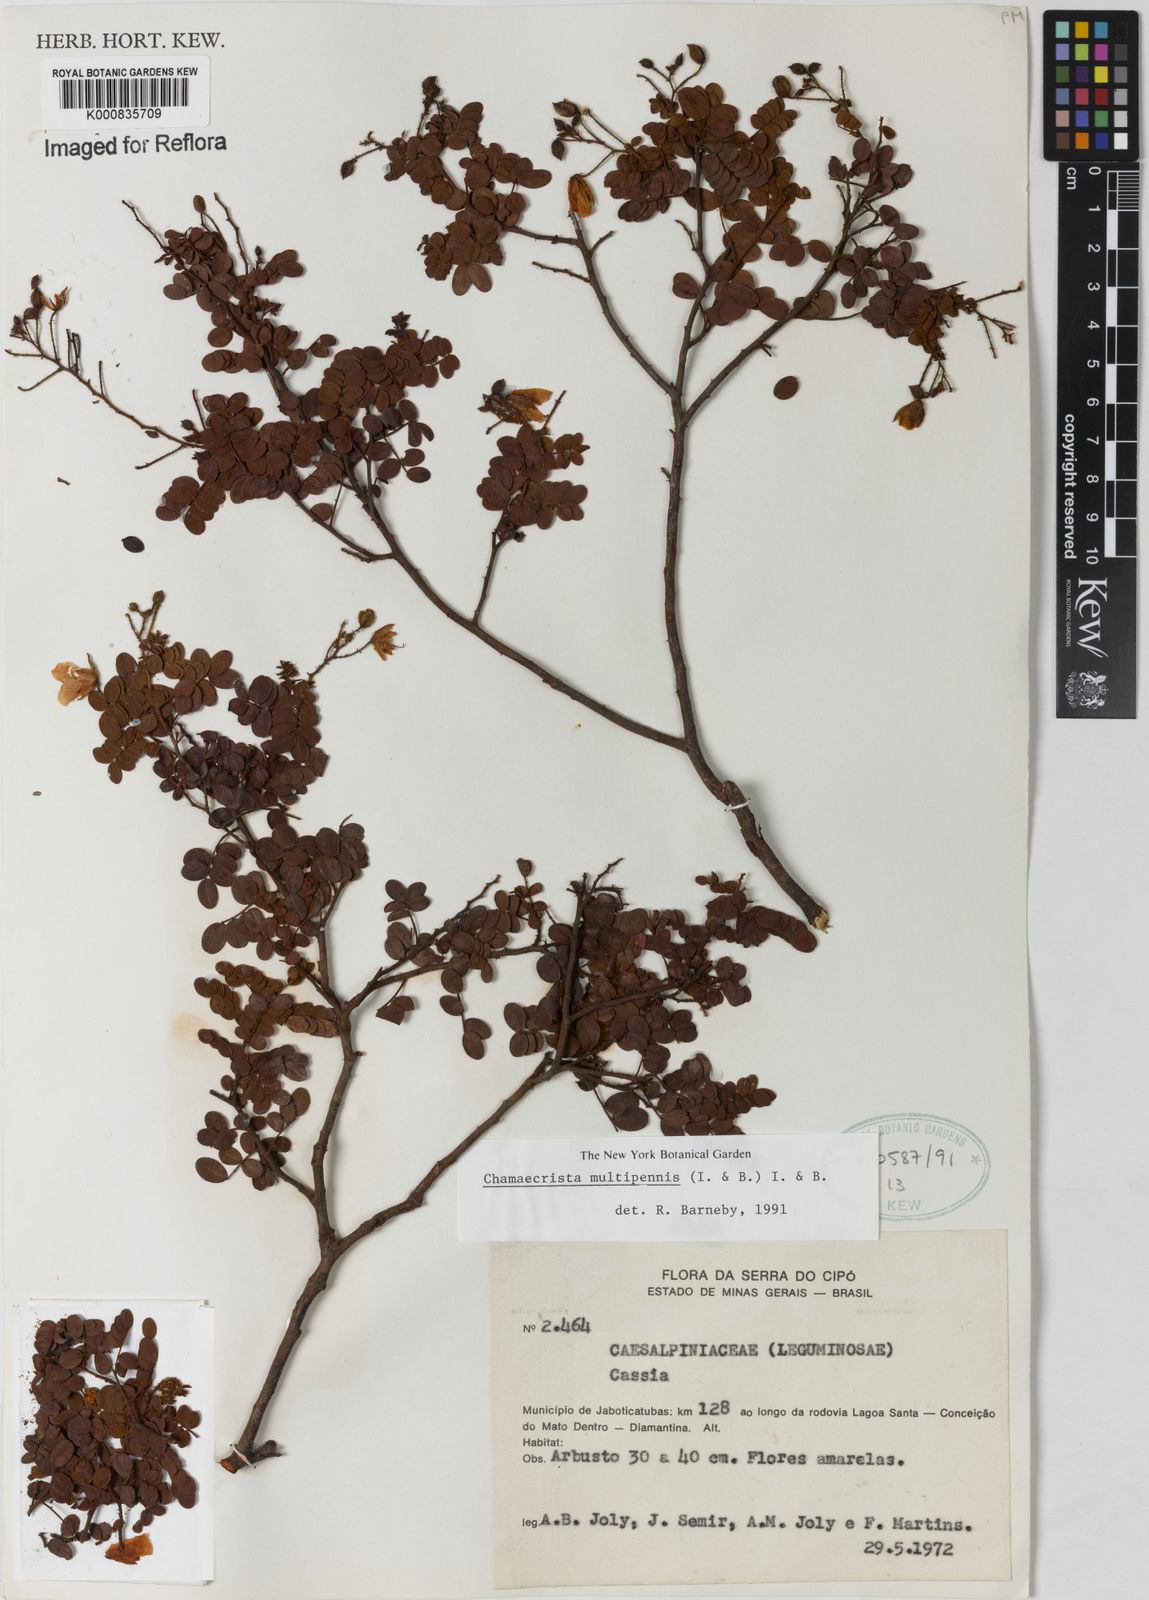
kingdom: Plantae
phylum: Tracheophyta
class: Magnoliopsida
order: Fabales
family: Fabaceae
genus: Chamaecrista
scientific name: Chamaecrista multipennis
